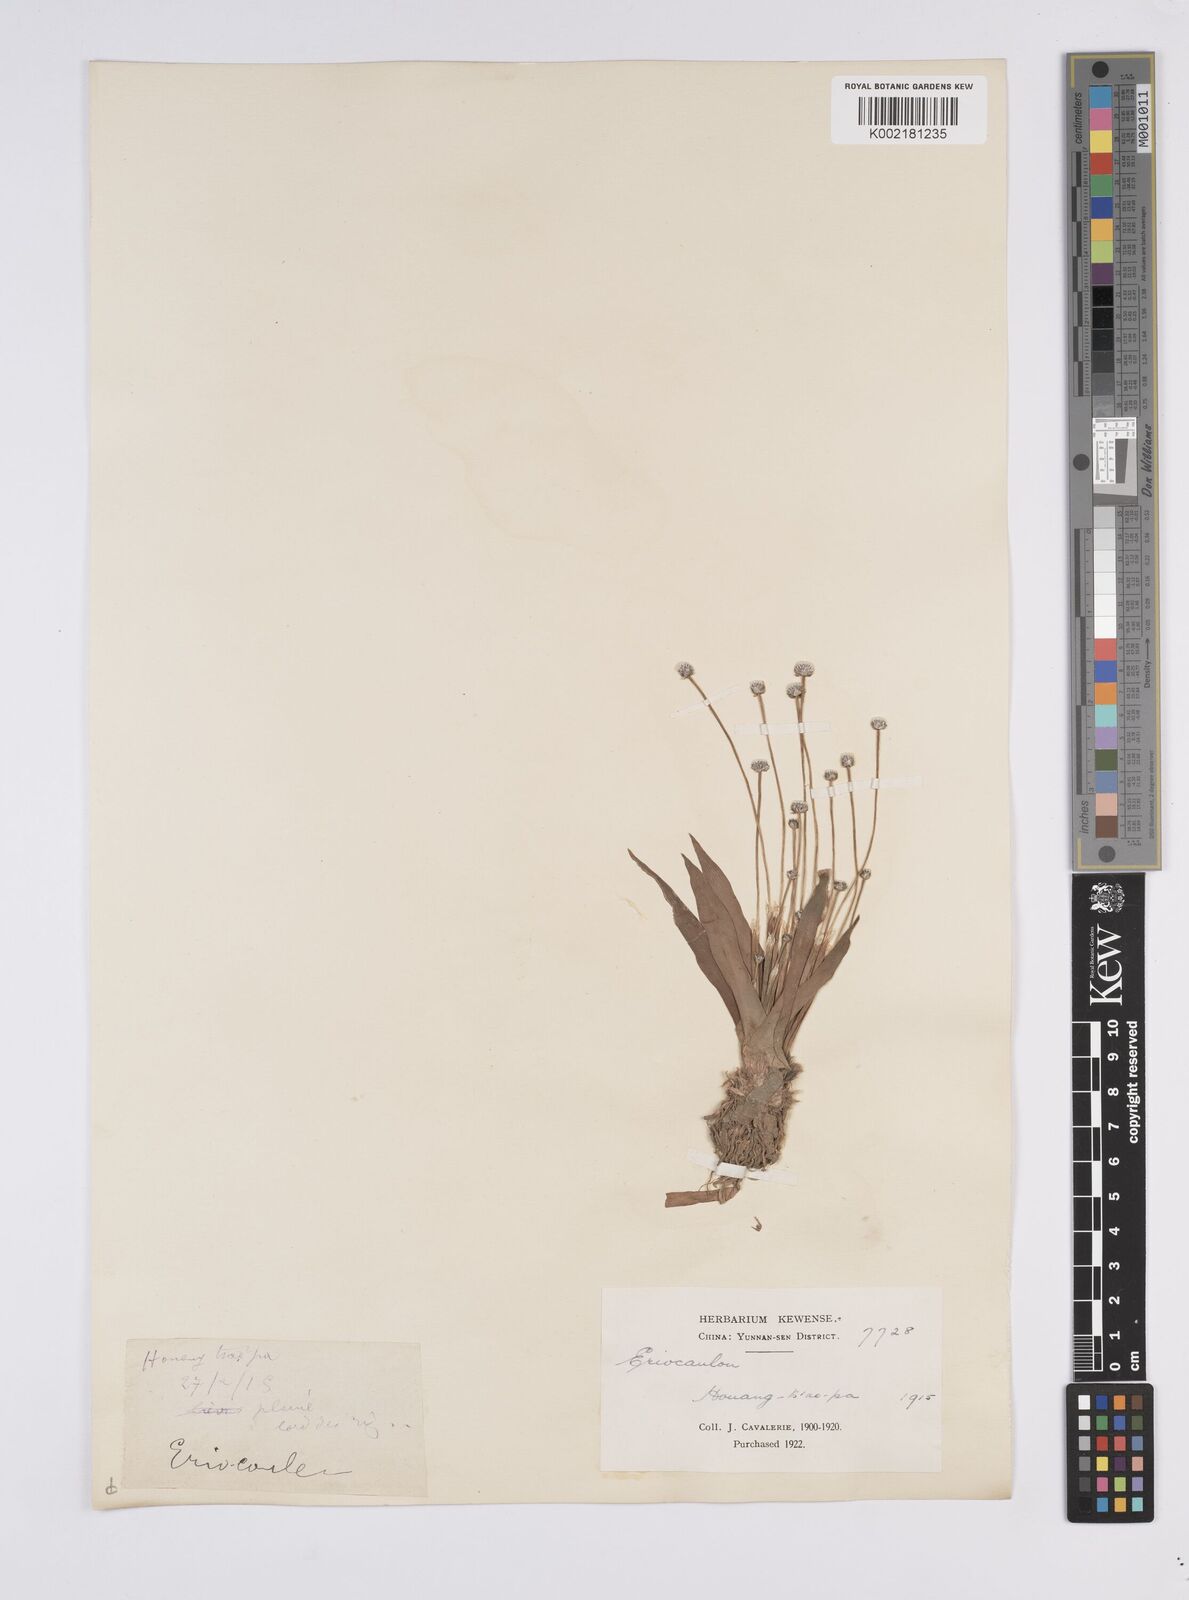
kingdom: Plantae
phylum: Tracheophyta
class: Liliopsida
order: Poales
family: Eriocaulaceae
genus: Eriocaulon
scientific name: Eriocaulon
